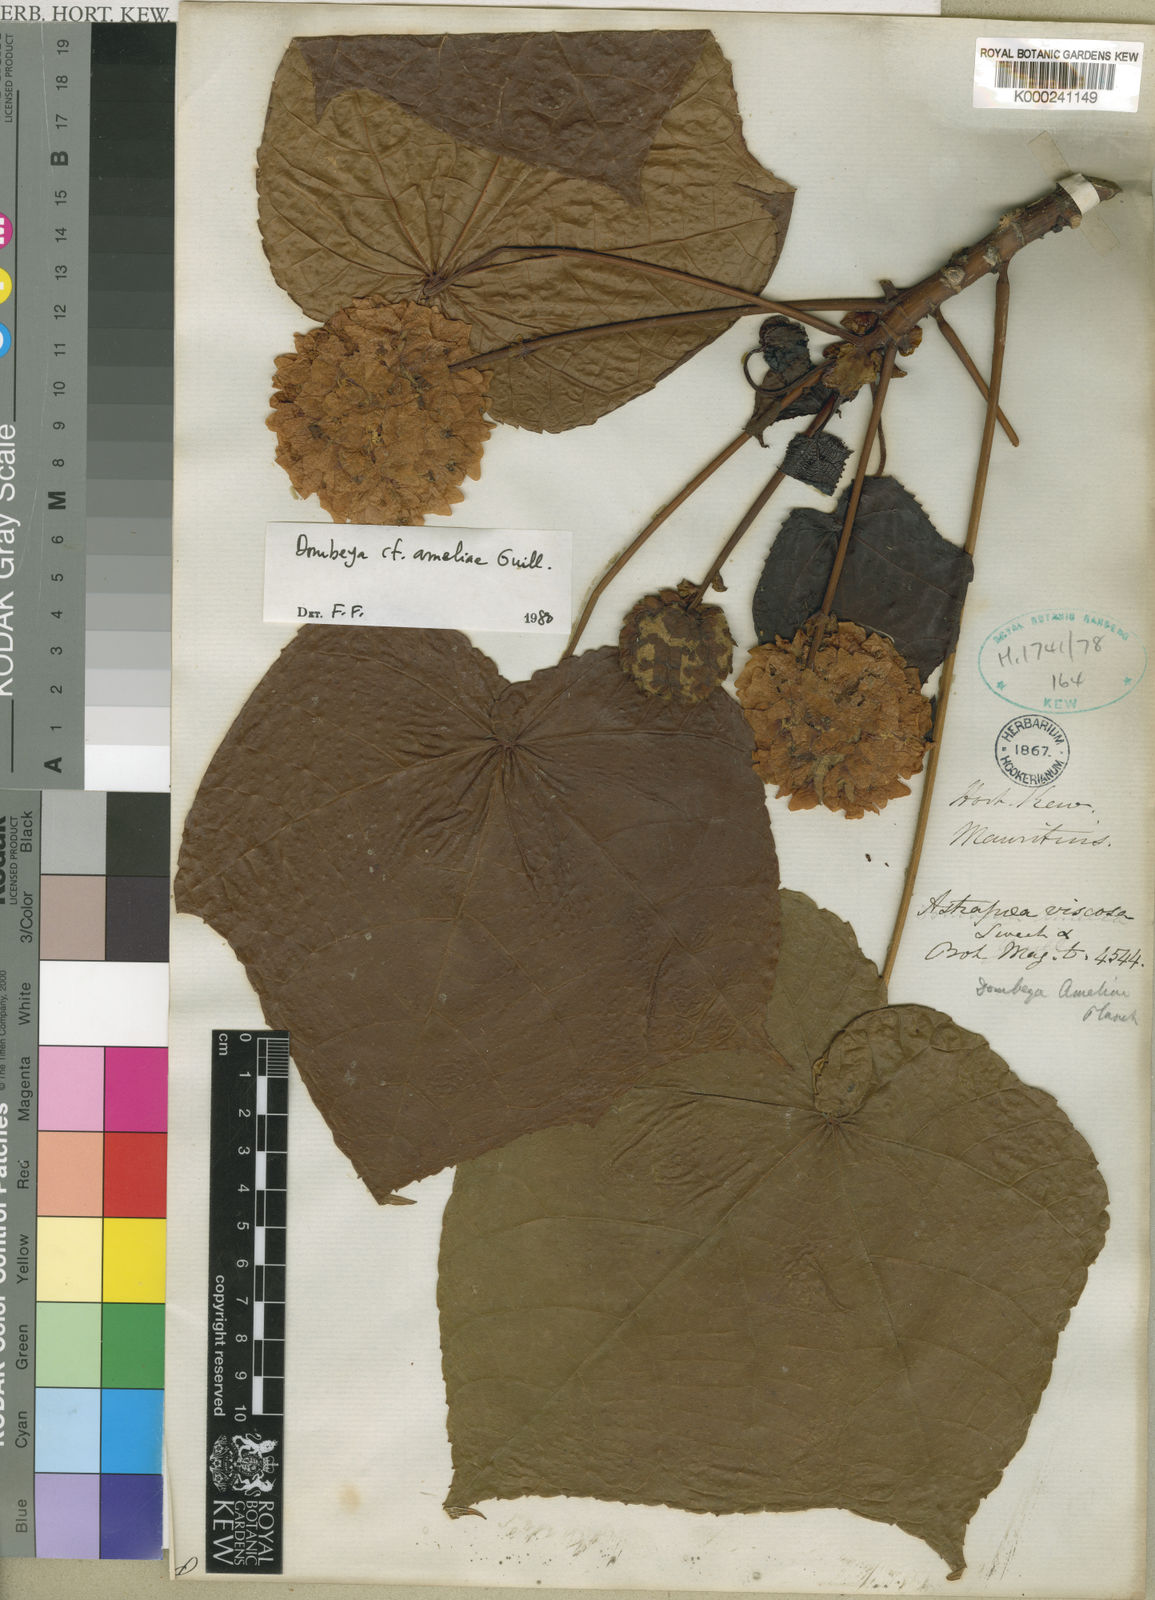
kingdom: Plantae
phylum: Tracheophyta
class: Magnoliopsida
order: Malvales
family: Malvaceae
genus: Dombeya
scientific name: Dombeya ameliae
